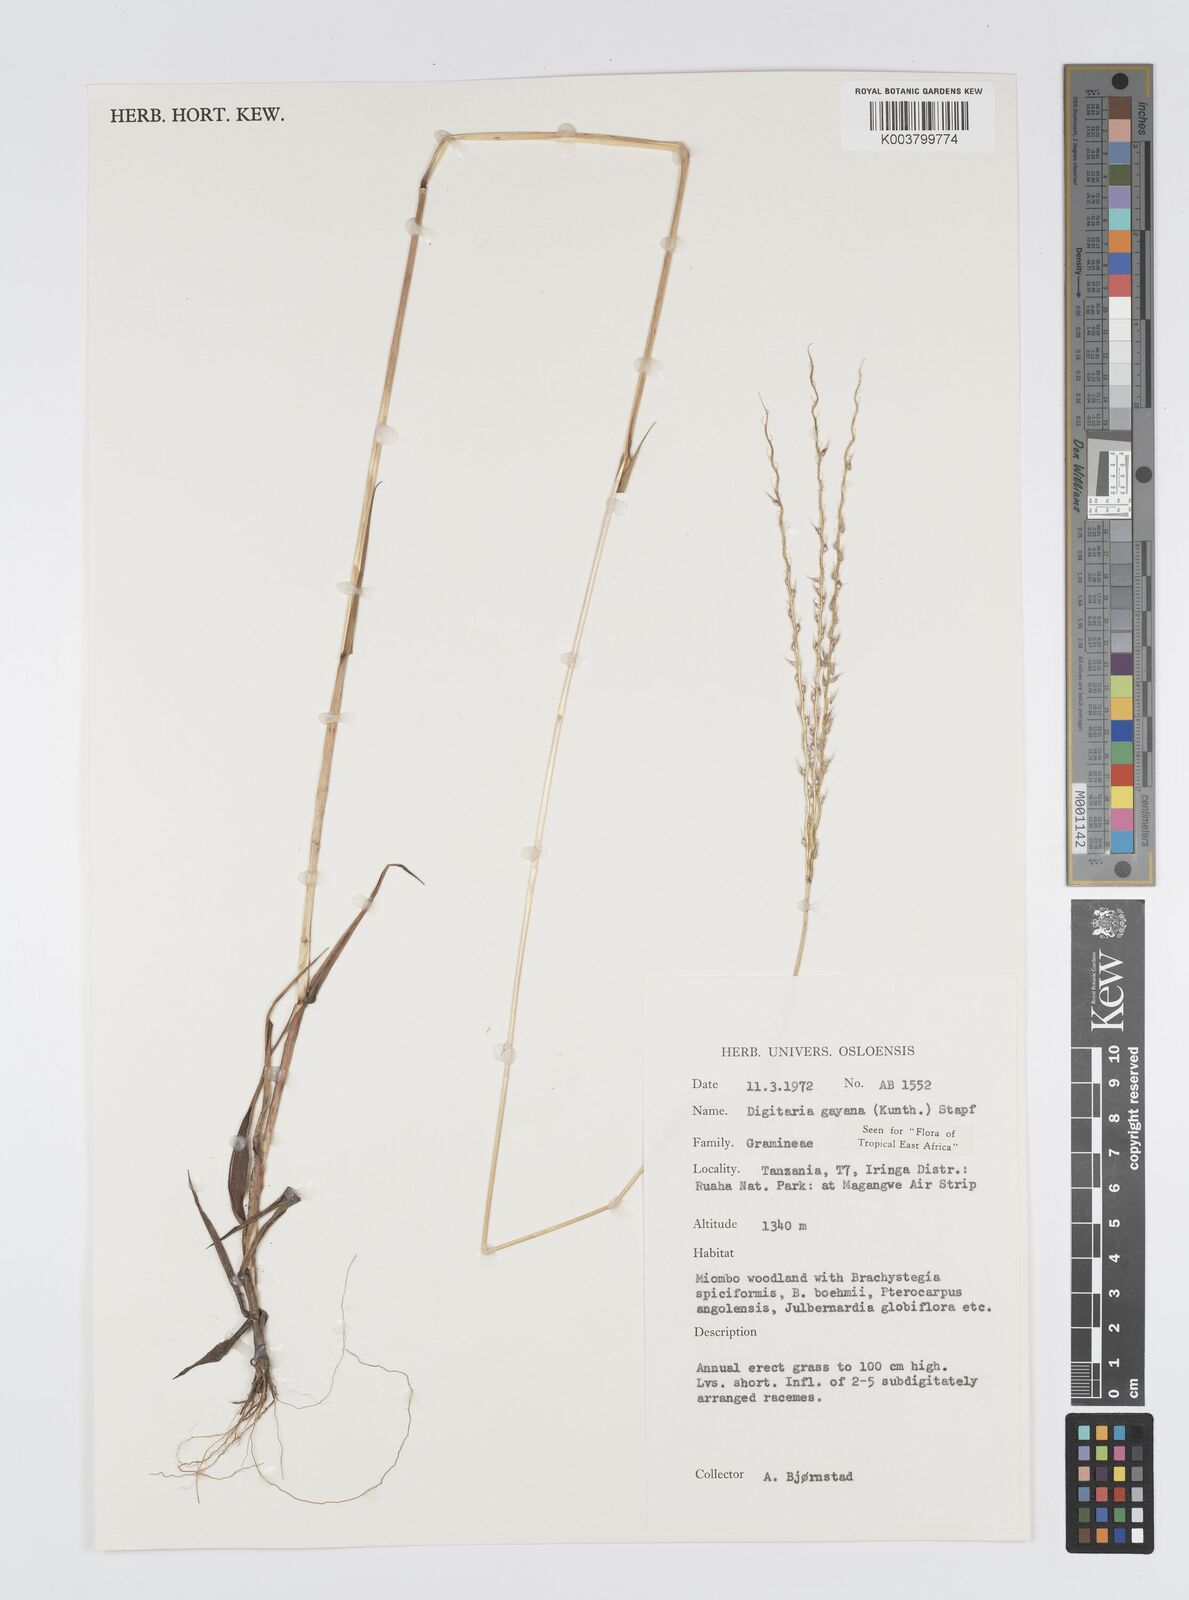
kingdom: Plantae
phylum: Tracheophyta
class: Liliopsida
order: Poales
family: Poaceae
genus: Digitaria
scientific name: Digitaria gayana
